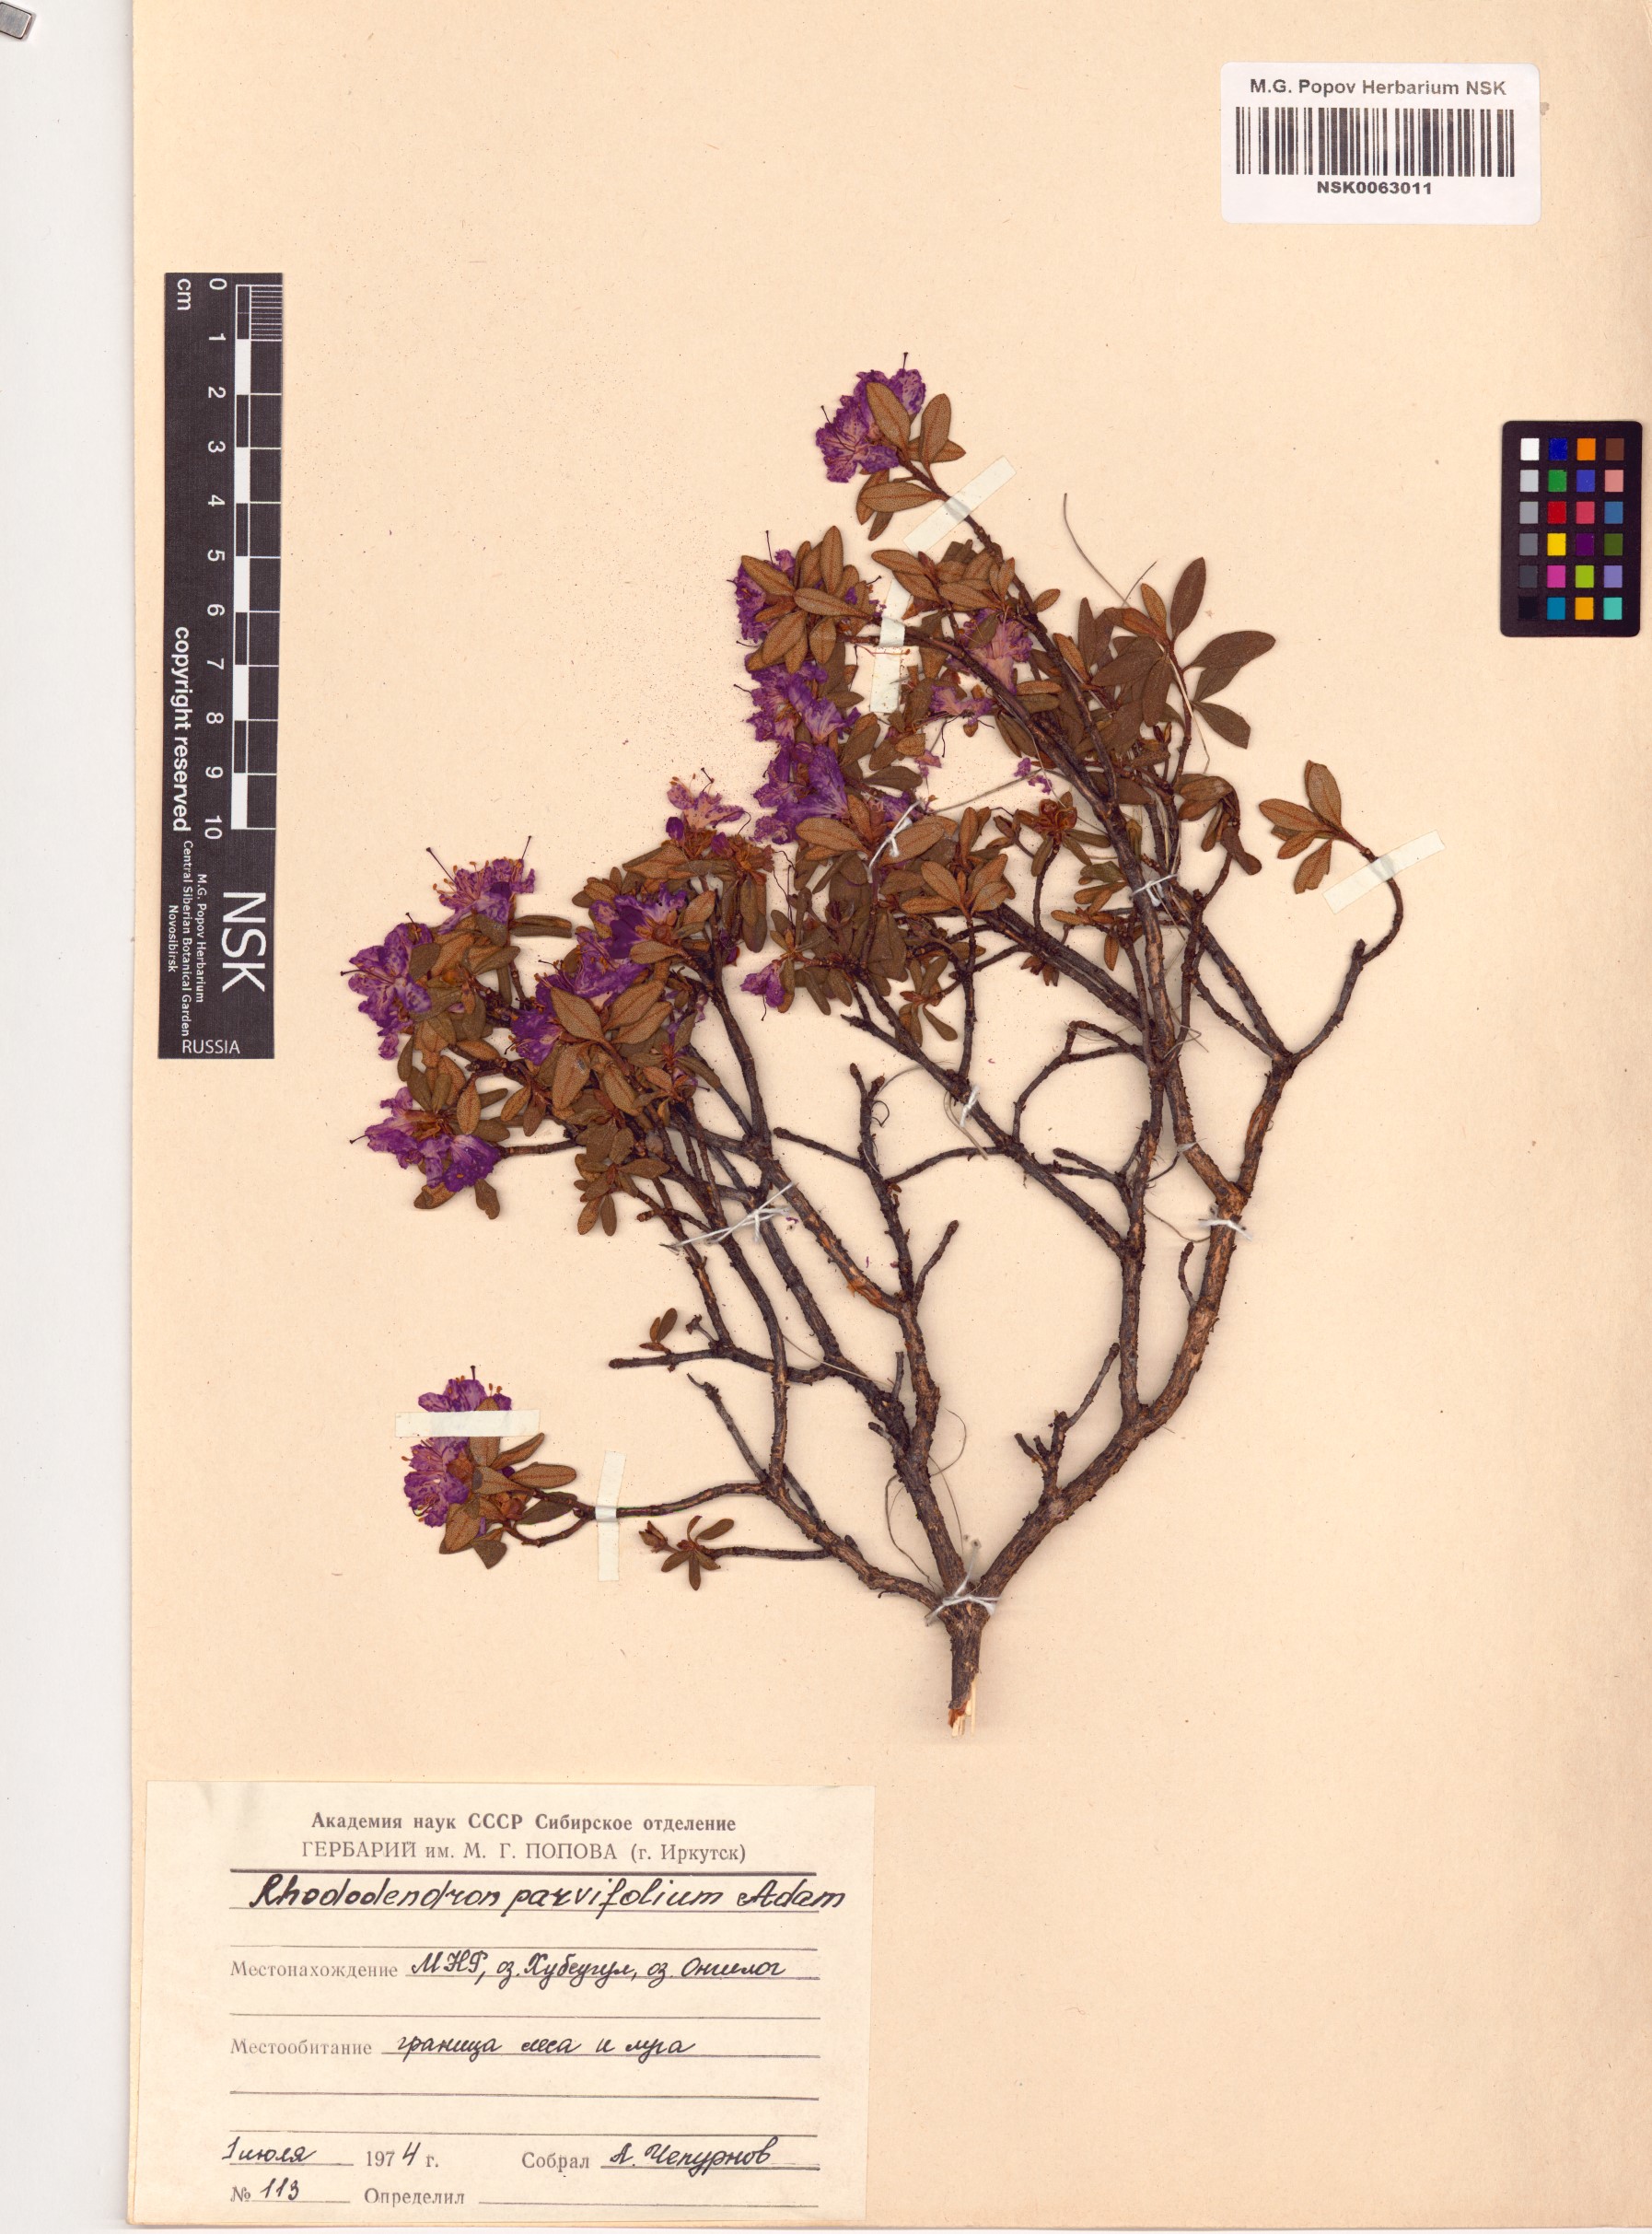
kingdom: Plantae
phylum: Tracheophyta
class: Magnoliopsida
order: Ericales
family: Ericaceae
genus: Rhododendron
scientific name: Rhododendron parvifolium
